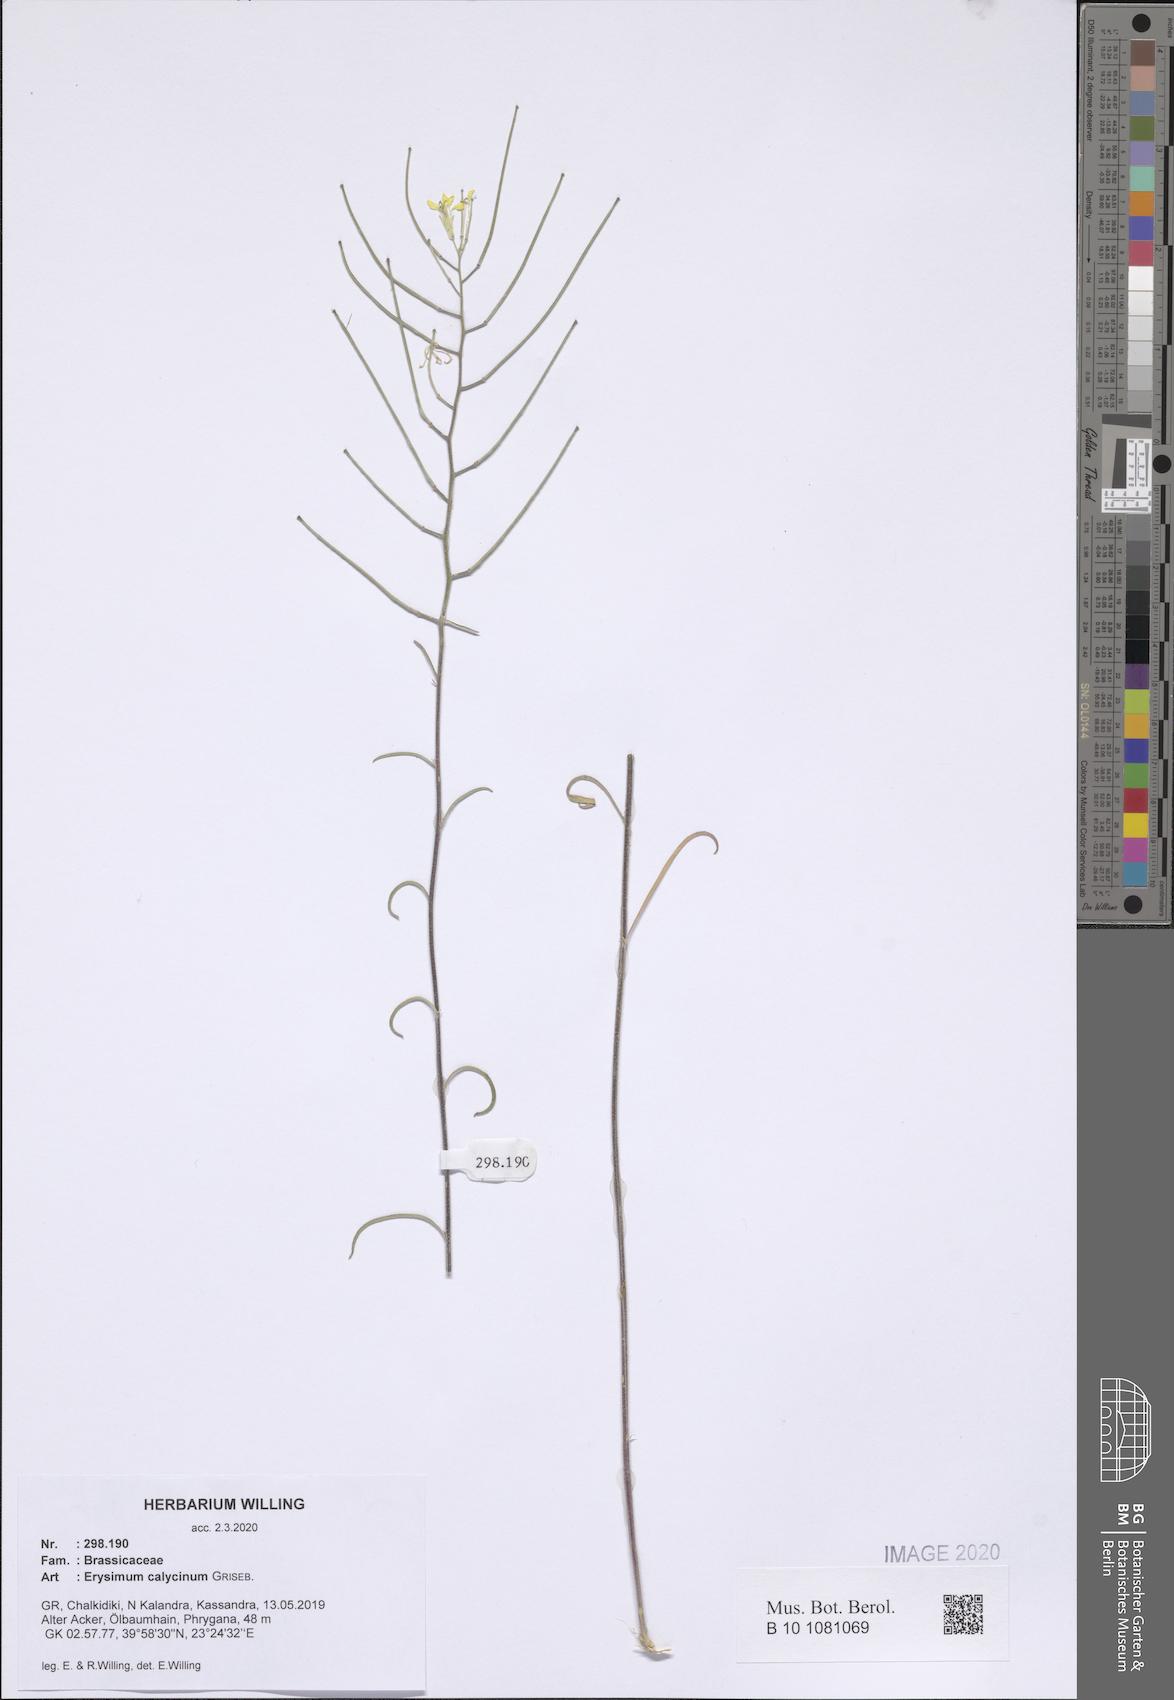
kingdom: Plantae
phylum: Tracheophyta
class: Magnoliopsida
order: Brassicales
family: Brassicaceae
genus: Erysimum
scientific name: Erysimum calycinum
